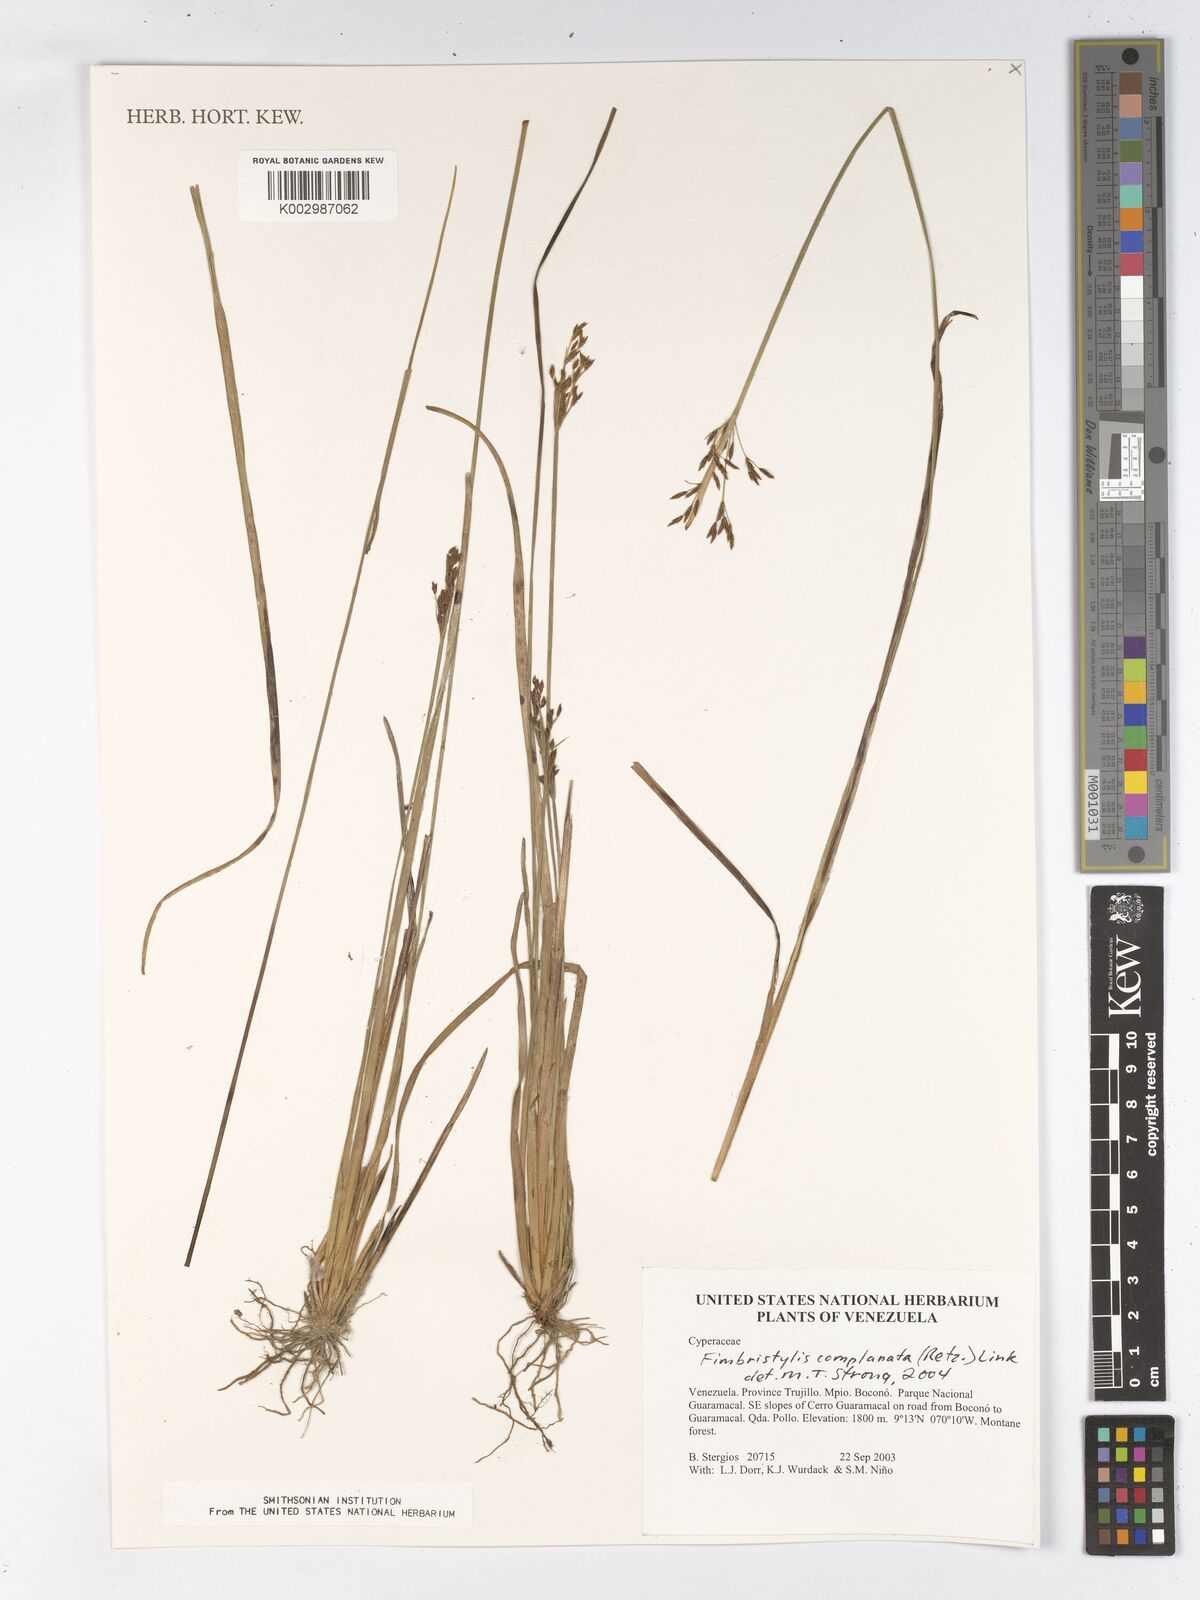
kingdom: Plantae
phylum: Tracheophyta
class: Liliopsida
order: Poales
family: Cyperaceae
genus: Fimbristylis
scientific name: Fimbristylis complanata
